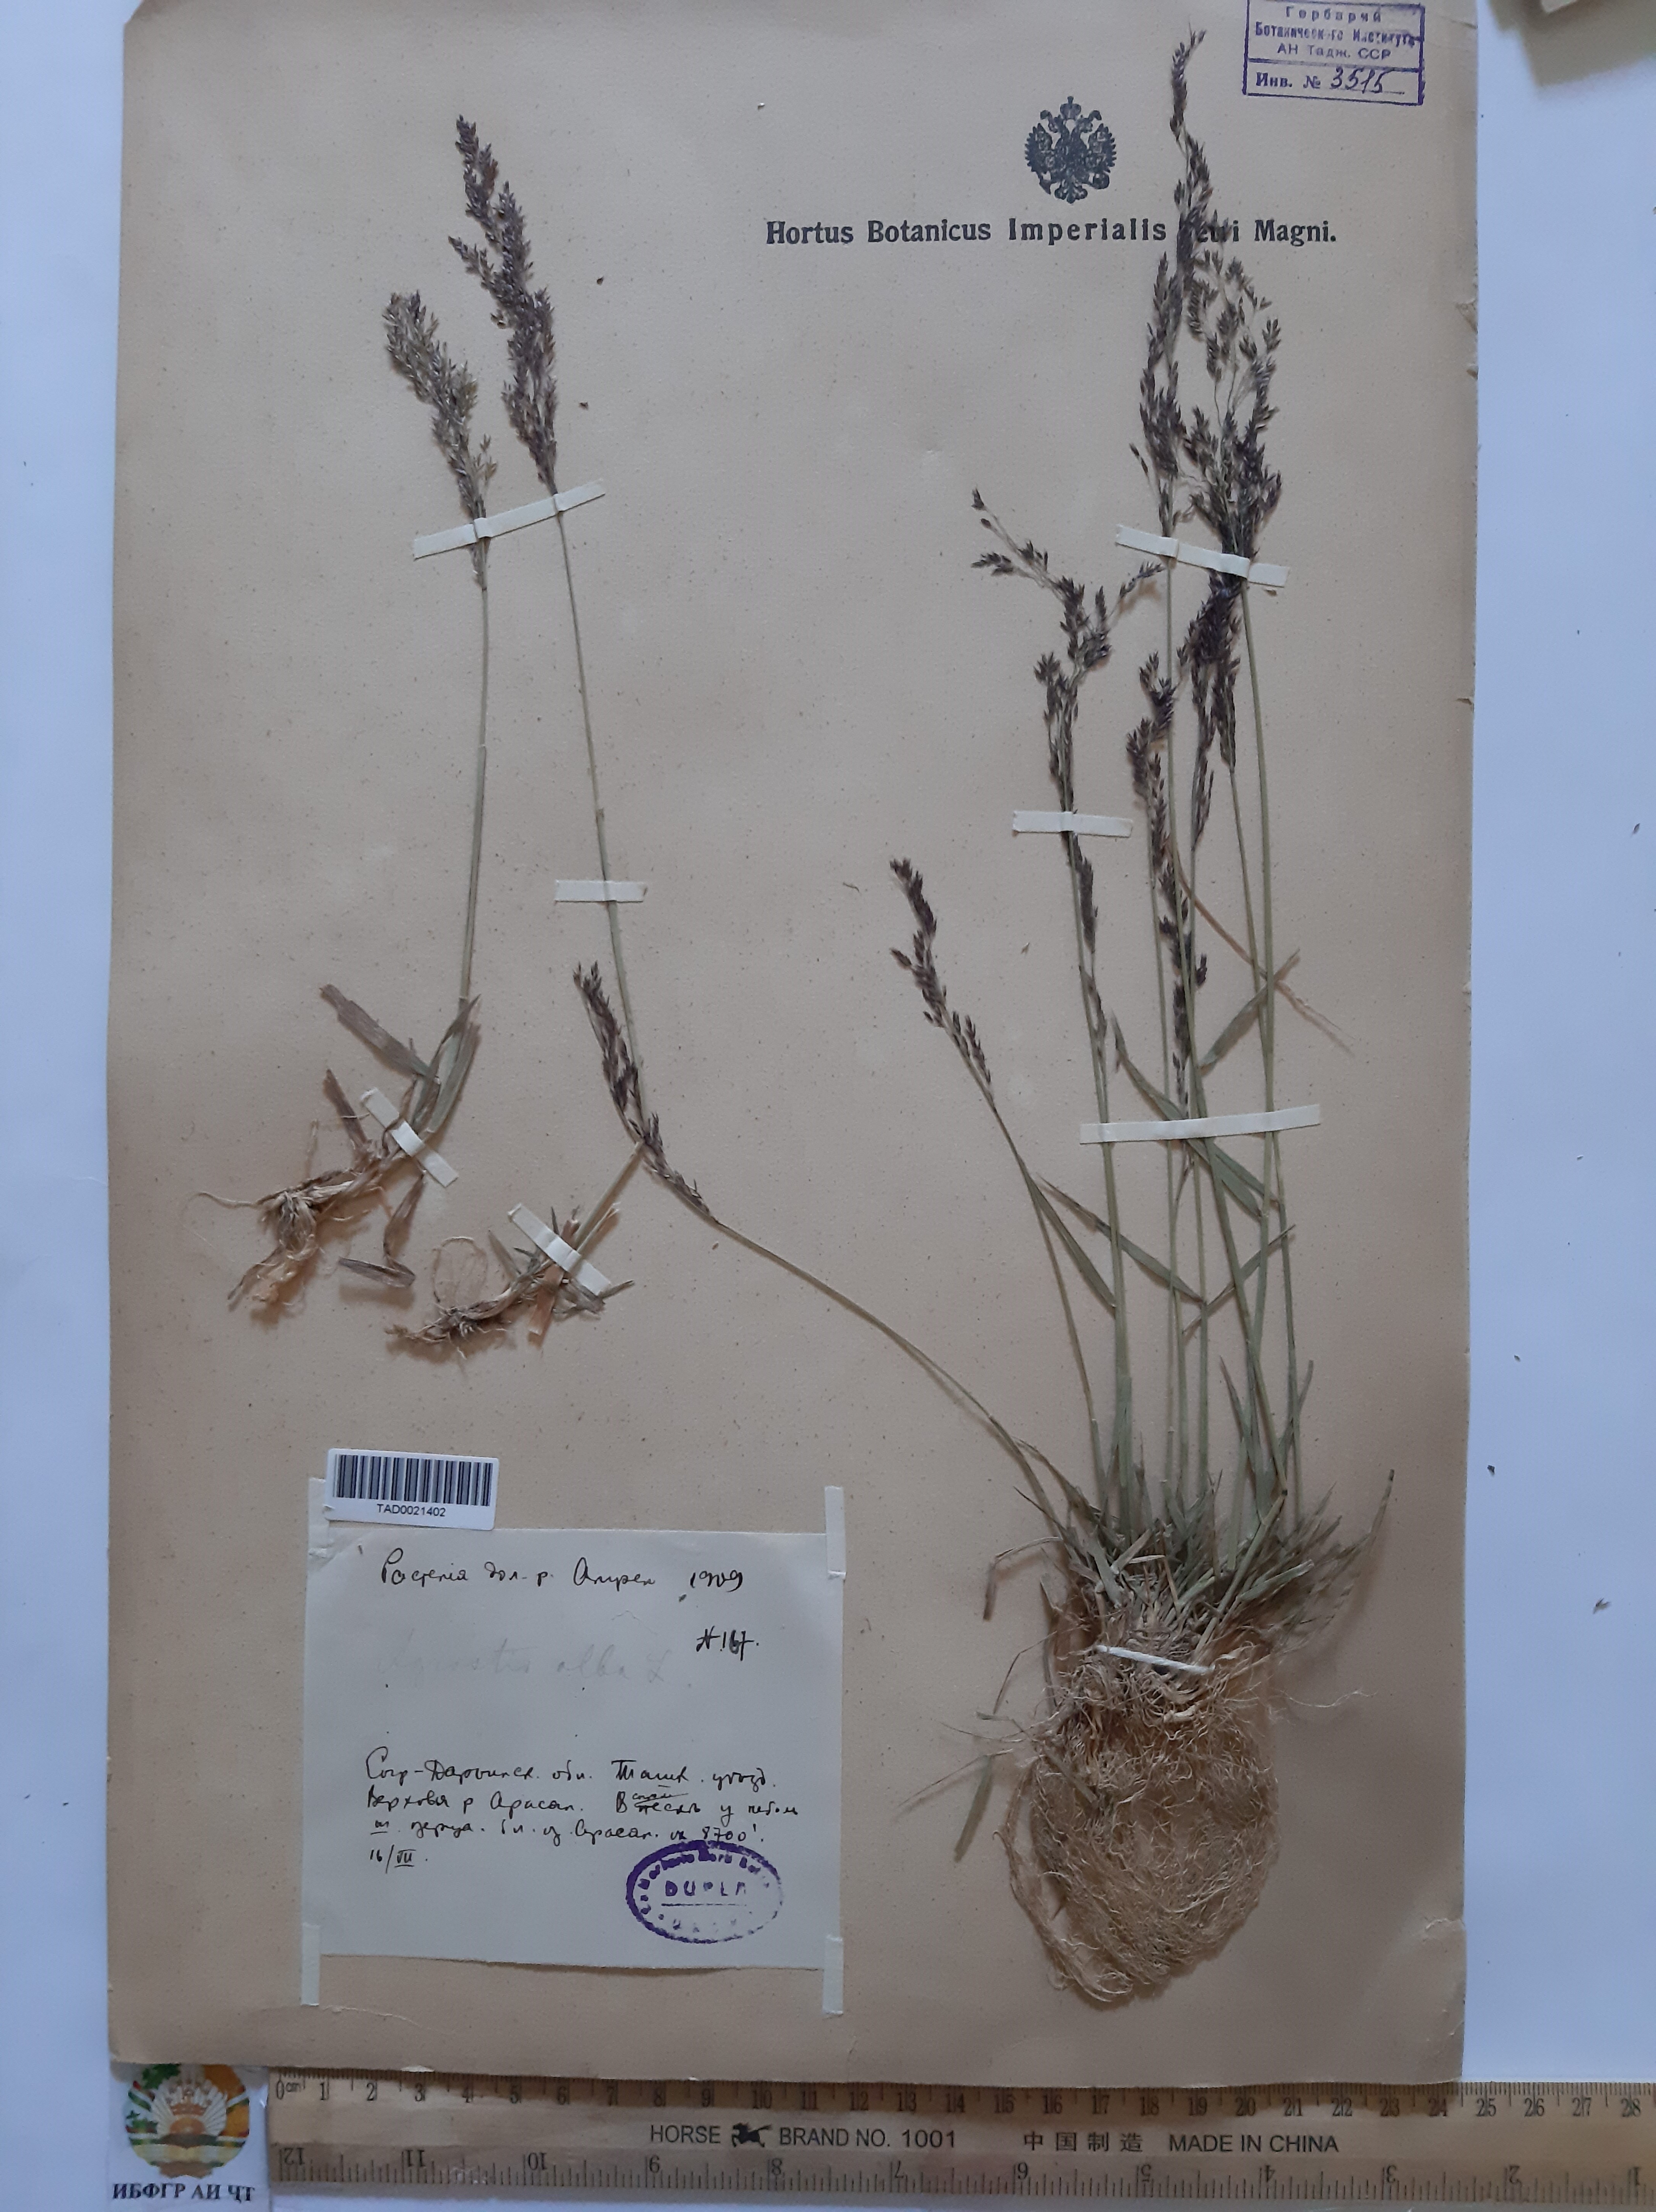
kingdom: Plantae
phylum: Tracheophyta
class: Liliopsida
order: Poales
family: Poaceae
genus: Poa
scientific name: Poa nemoralis
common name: Wood bluegrass
